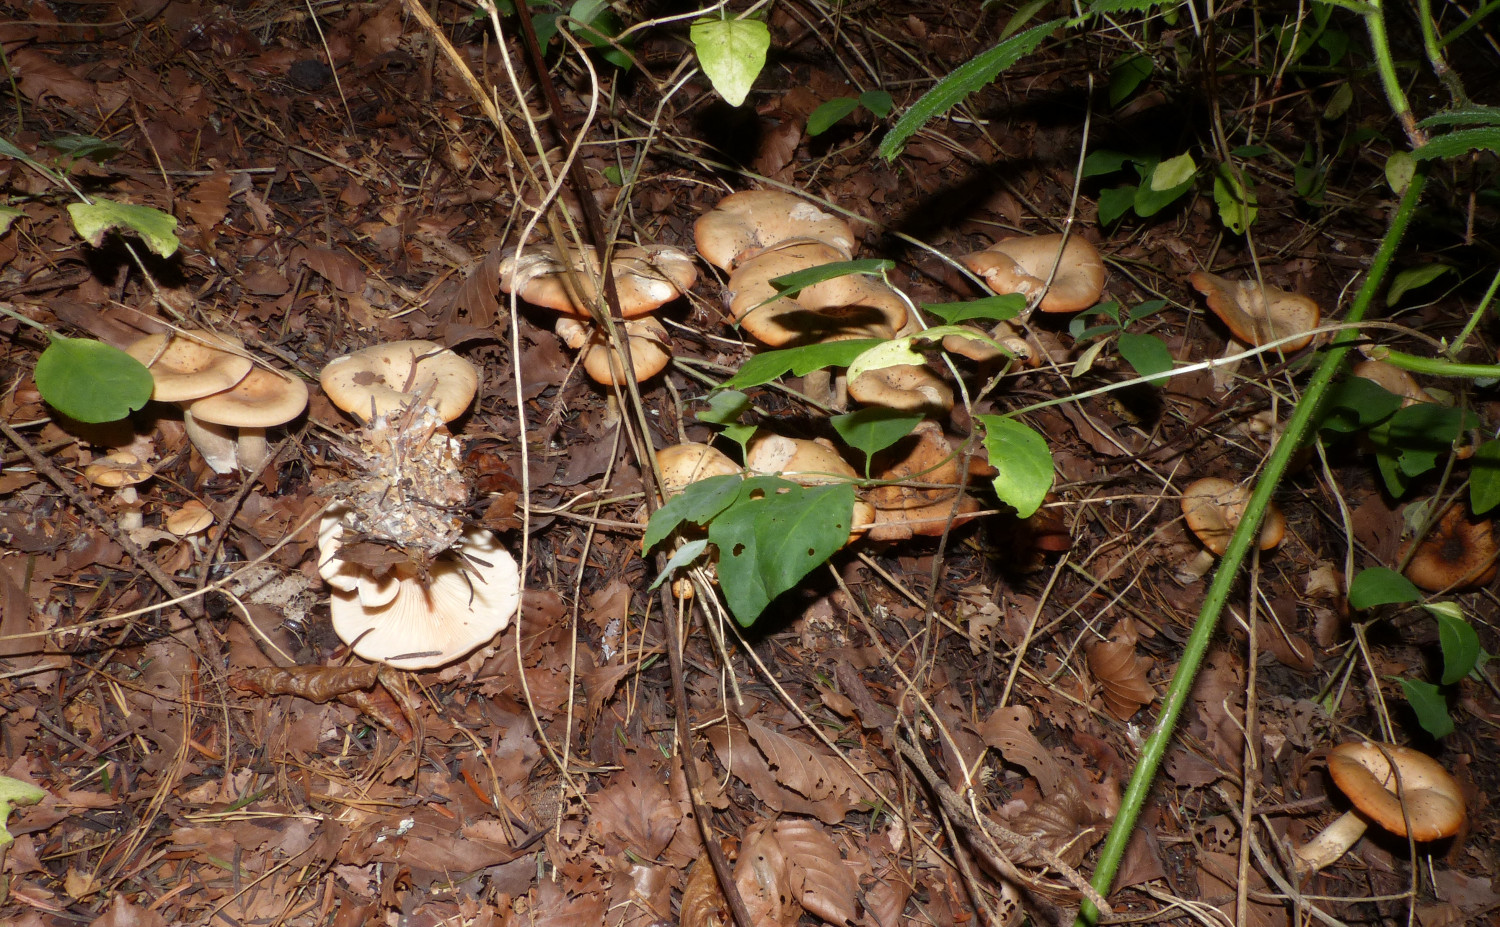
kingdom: Fungi
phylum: Basidiomycota
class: Agaricomycetes
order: Agaricales
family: Tricholomataceae
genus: Paralepista
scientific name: Paralepista flaccida
